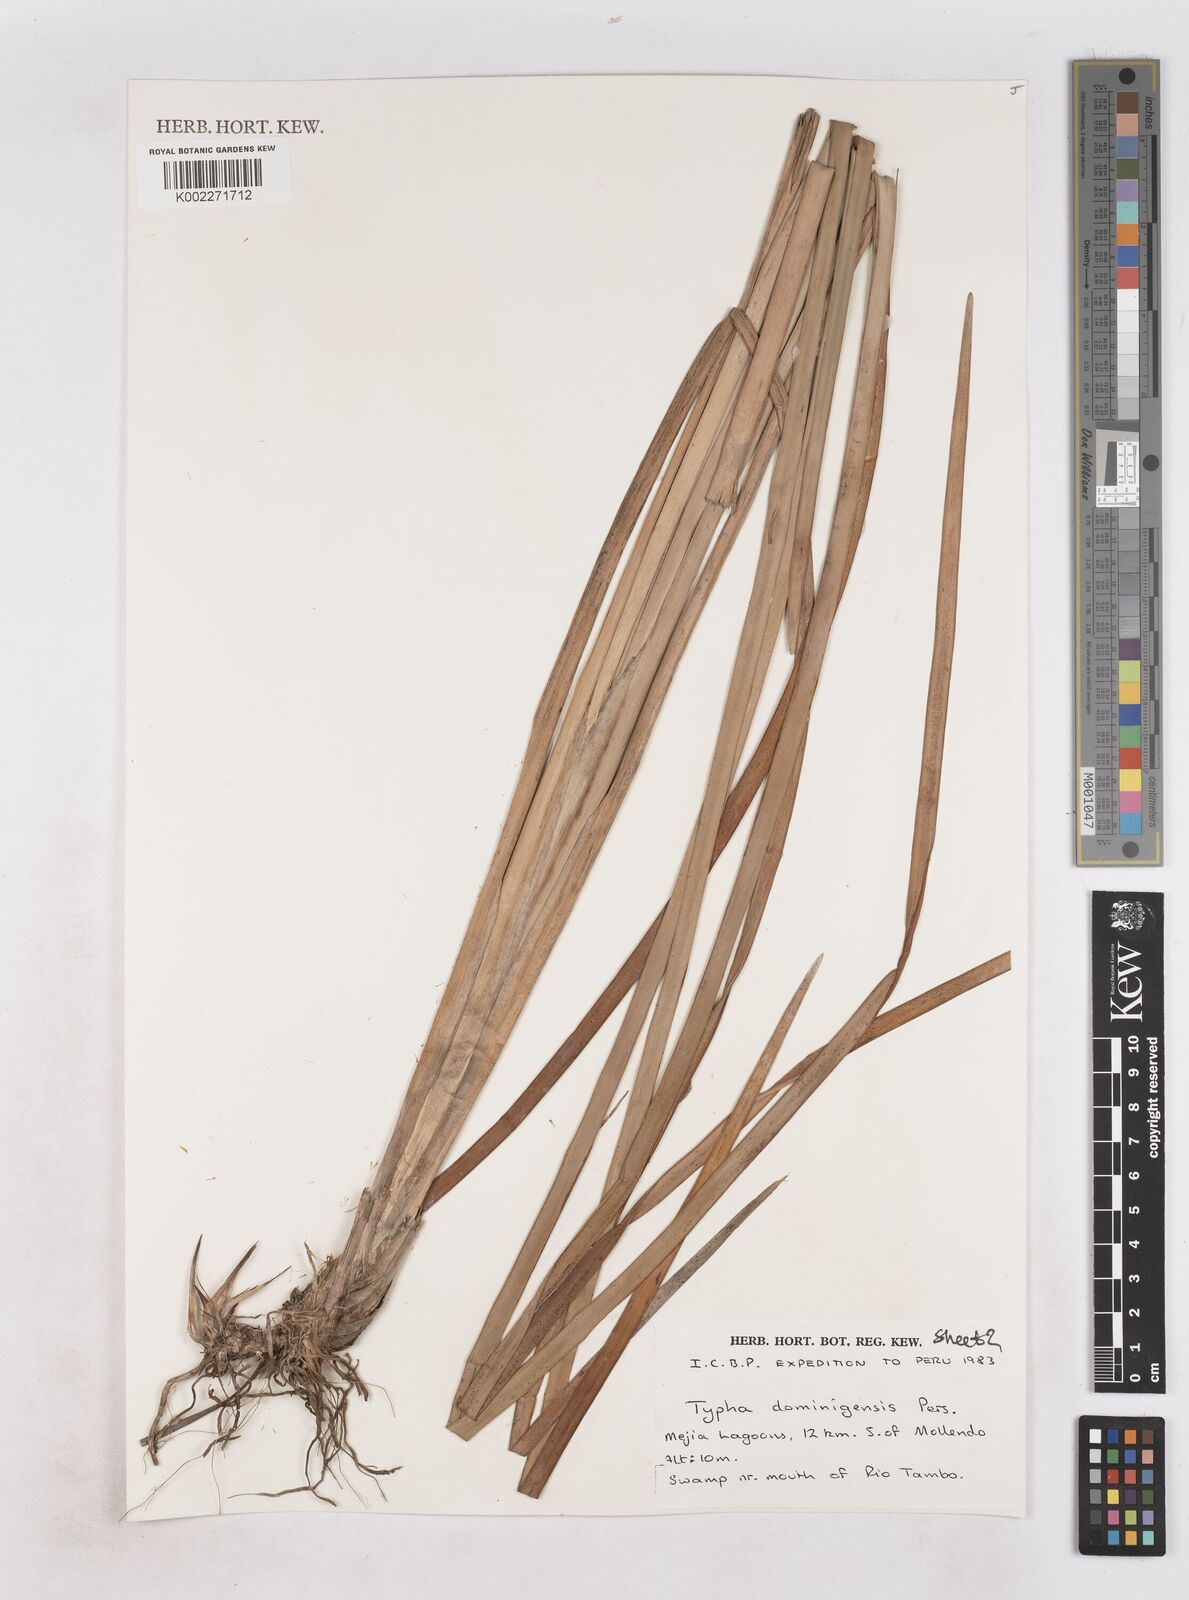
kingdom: Plantae
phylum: Tracheophyta
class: Liliopsida
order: Poales
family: Typhaceae
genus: Typha
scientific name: Typha domingensis
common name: Southern cattail
